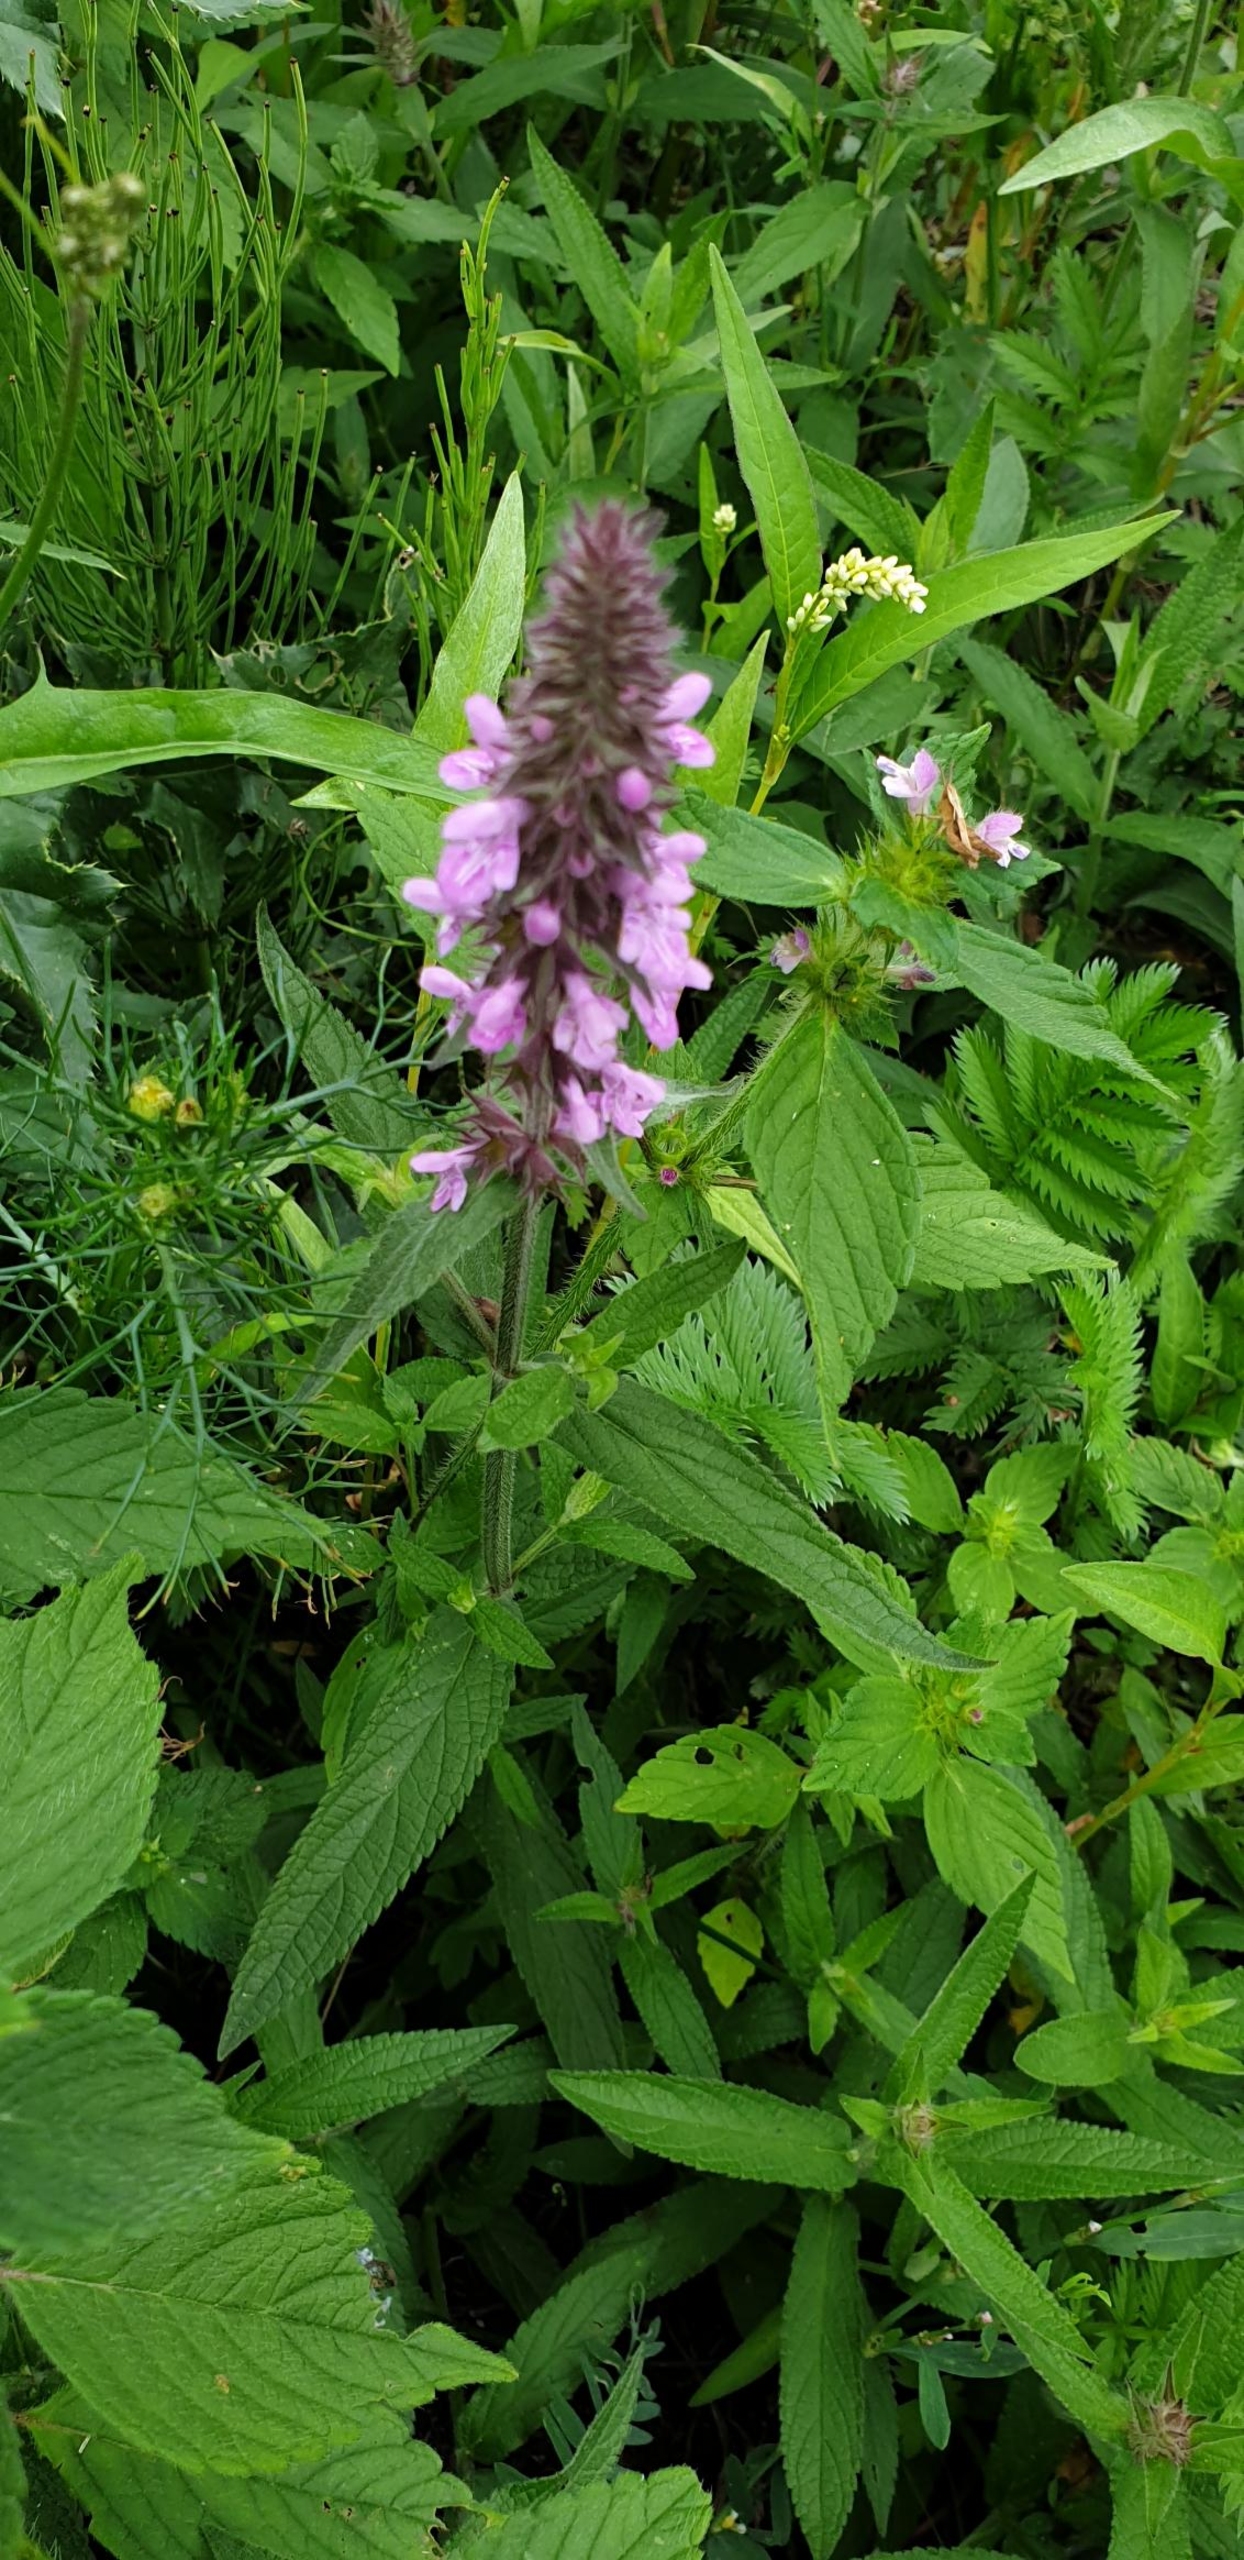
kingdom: Plantae
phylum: Tracheophyta
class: Magnoliopsida
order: Lamiales
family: Lamiaceae
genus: Stachys
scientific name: Stachys palustris
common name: Kær-galtetand
